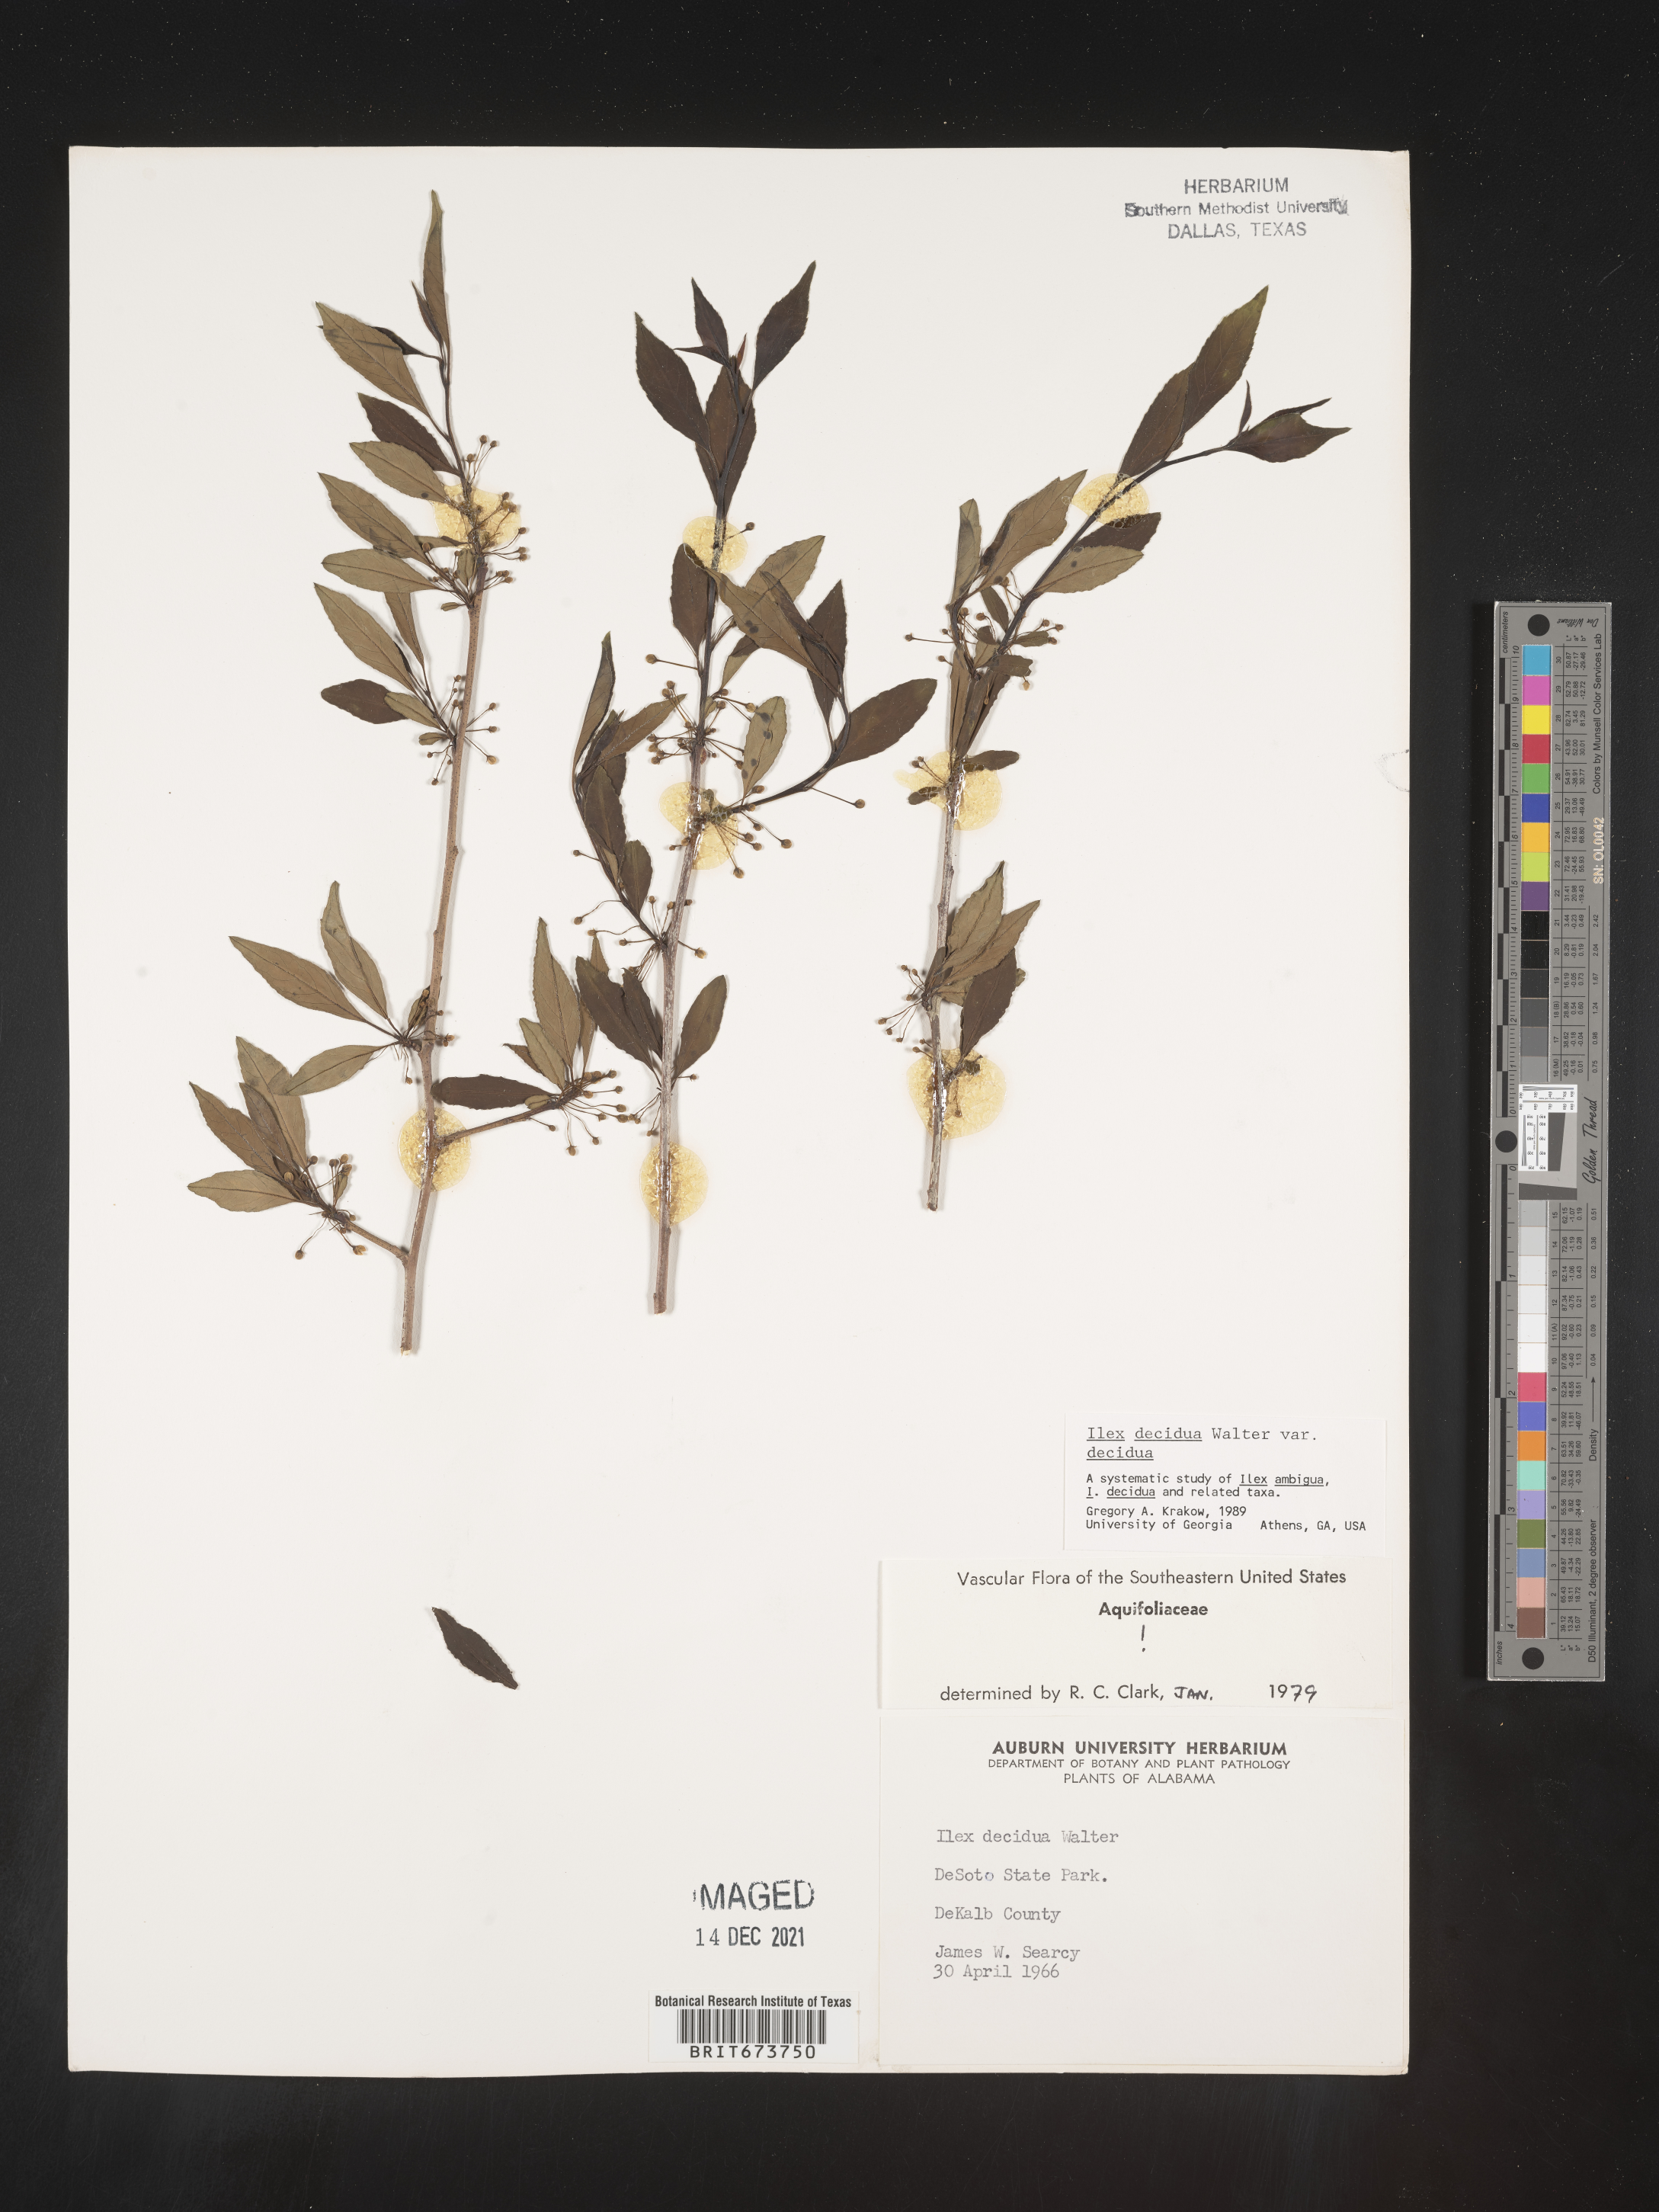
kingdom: Plantae
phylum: Tracheophyta
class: Magnoliopsida
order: Aquifoliales
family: Aquifoliaceae
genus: Ilex
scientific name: Ilex decidua
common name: Possum-haw
